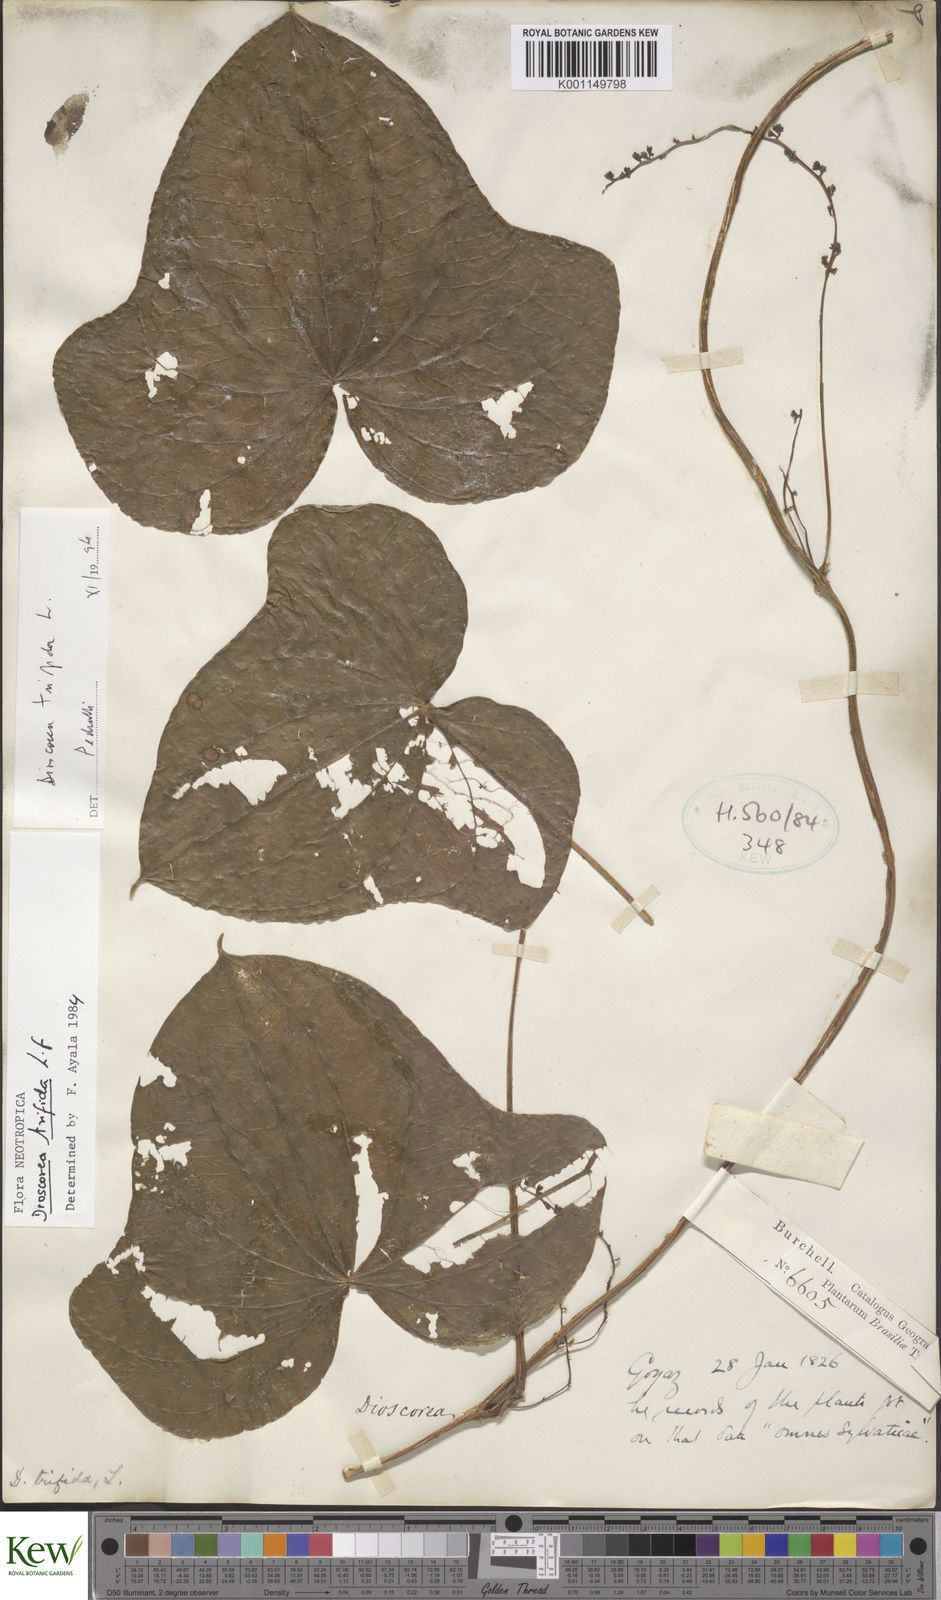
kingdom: Plantae
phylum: Tracheophyta
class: Liliopsida
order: Dioscoreales
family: Dioscoreaceae
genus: Dioscorea
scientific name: Dioscorea trifida
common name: Cush-cush
